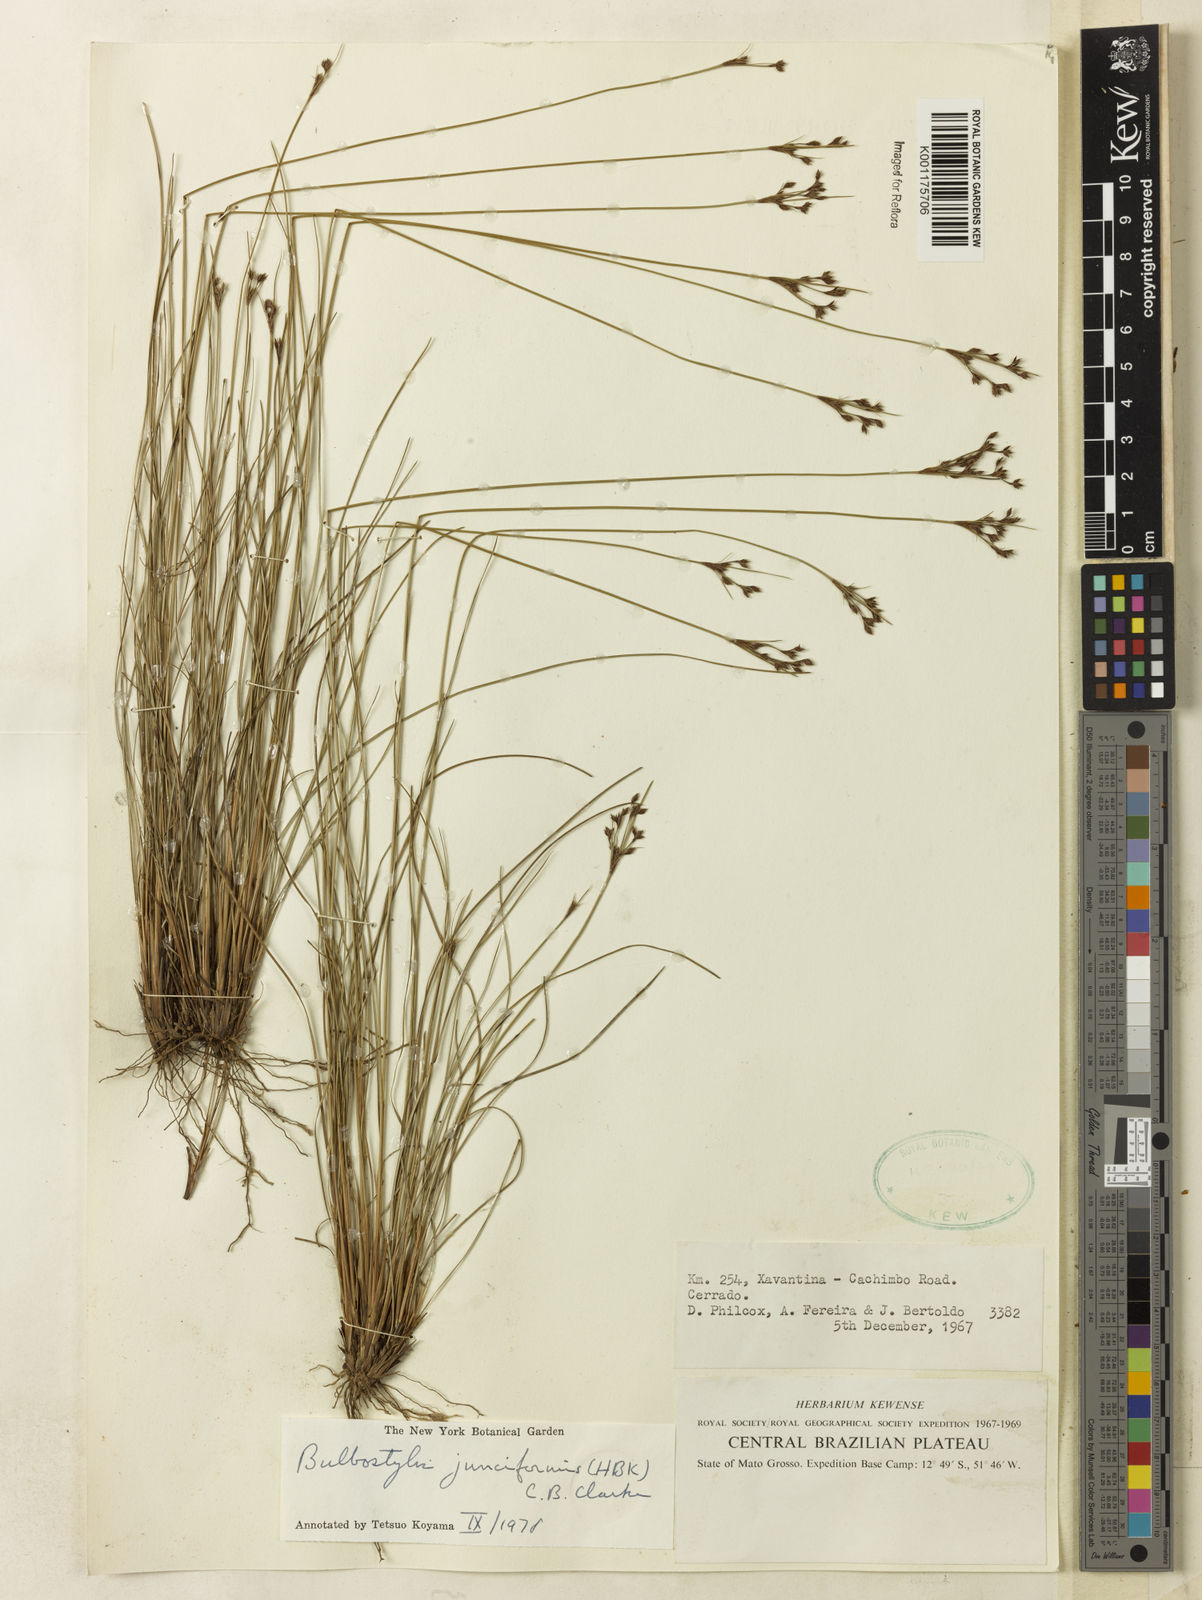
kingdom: Plantae
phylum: Tracheophyta
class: Liliopsida
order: Poales
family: Cyperaceae
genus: Bulbostylis
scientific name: Bulbostylis junciformis
